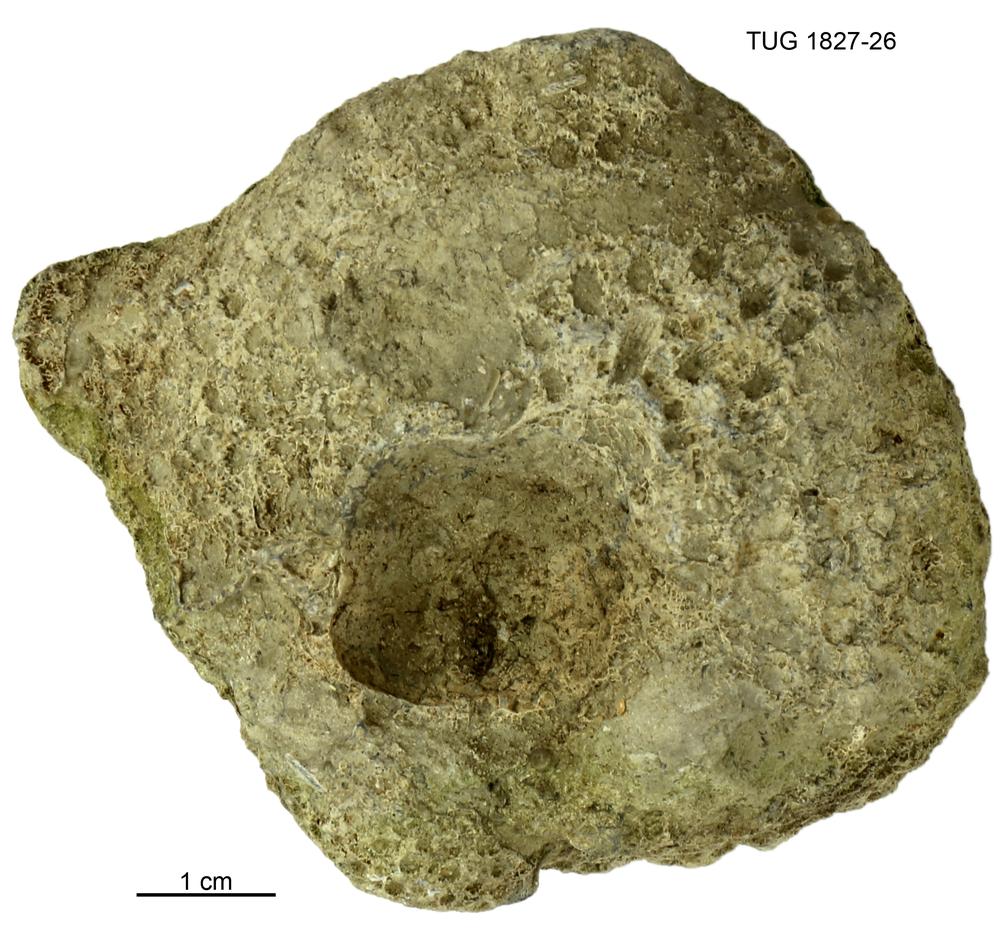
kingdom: Animalia
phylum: Xenacoelomorpha
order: Acoela
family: Proporidae
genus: Propora
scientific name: Propora
